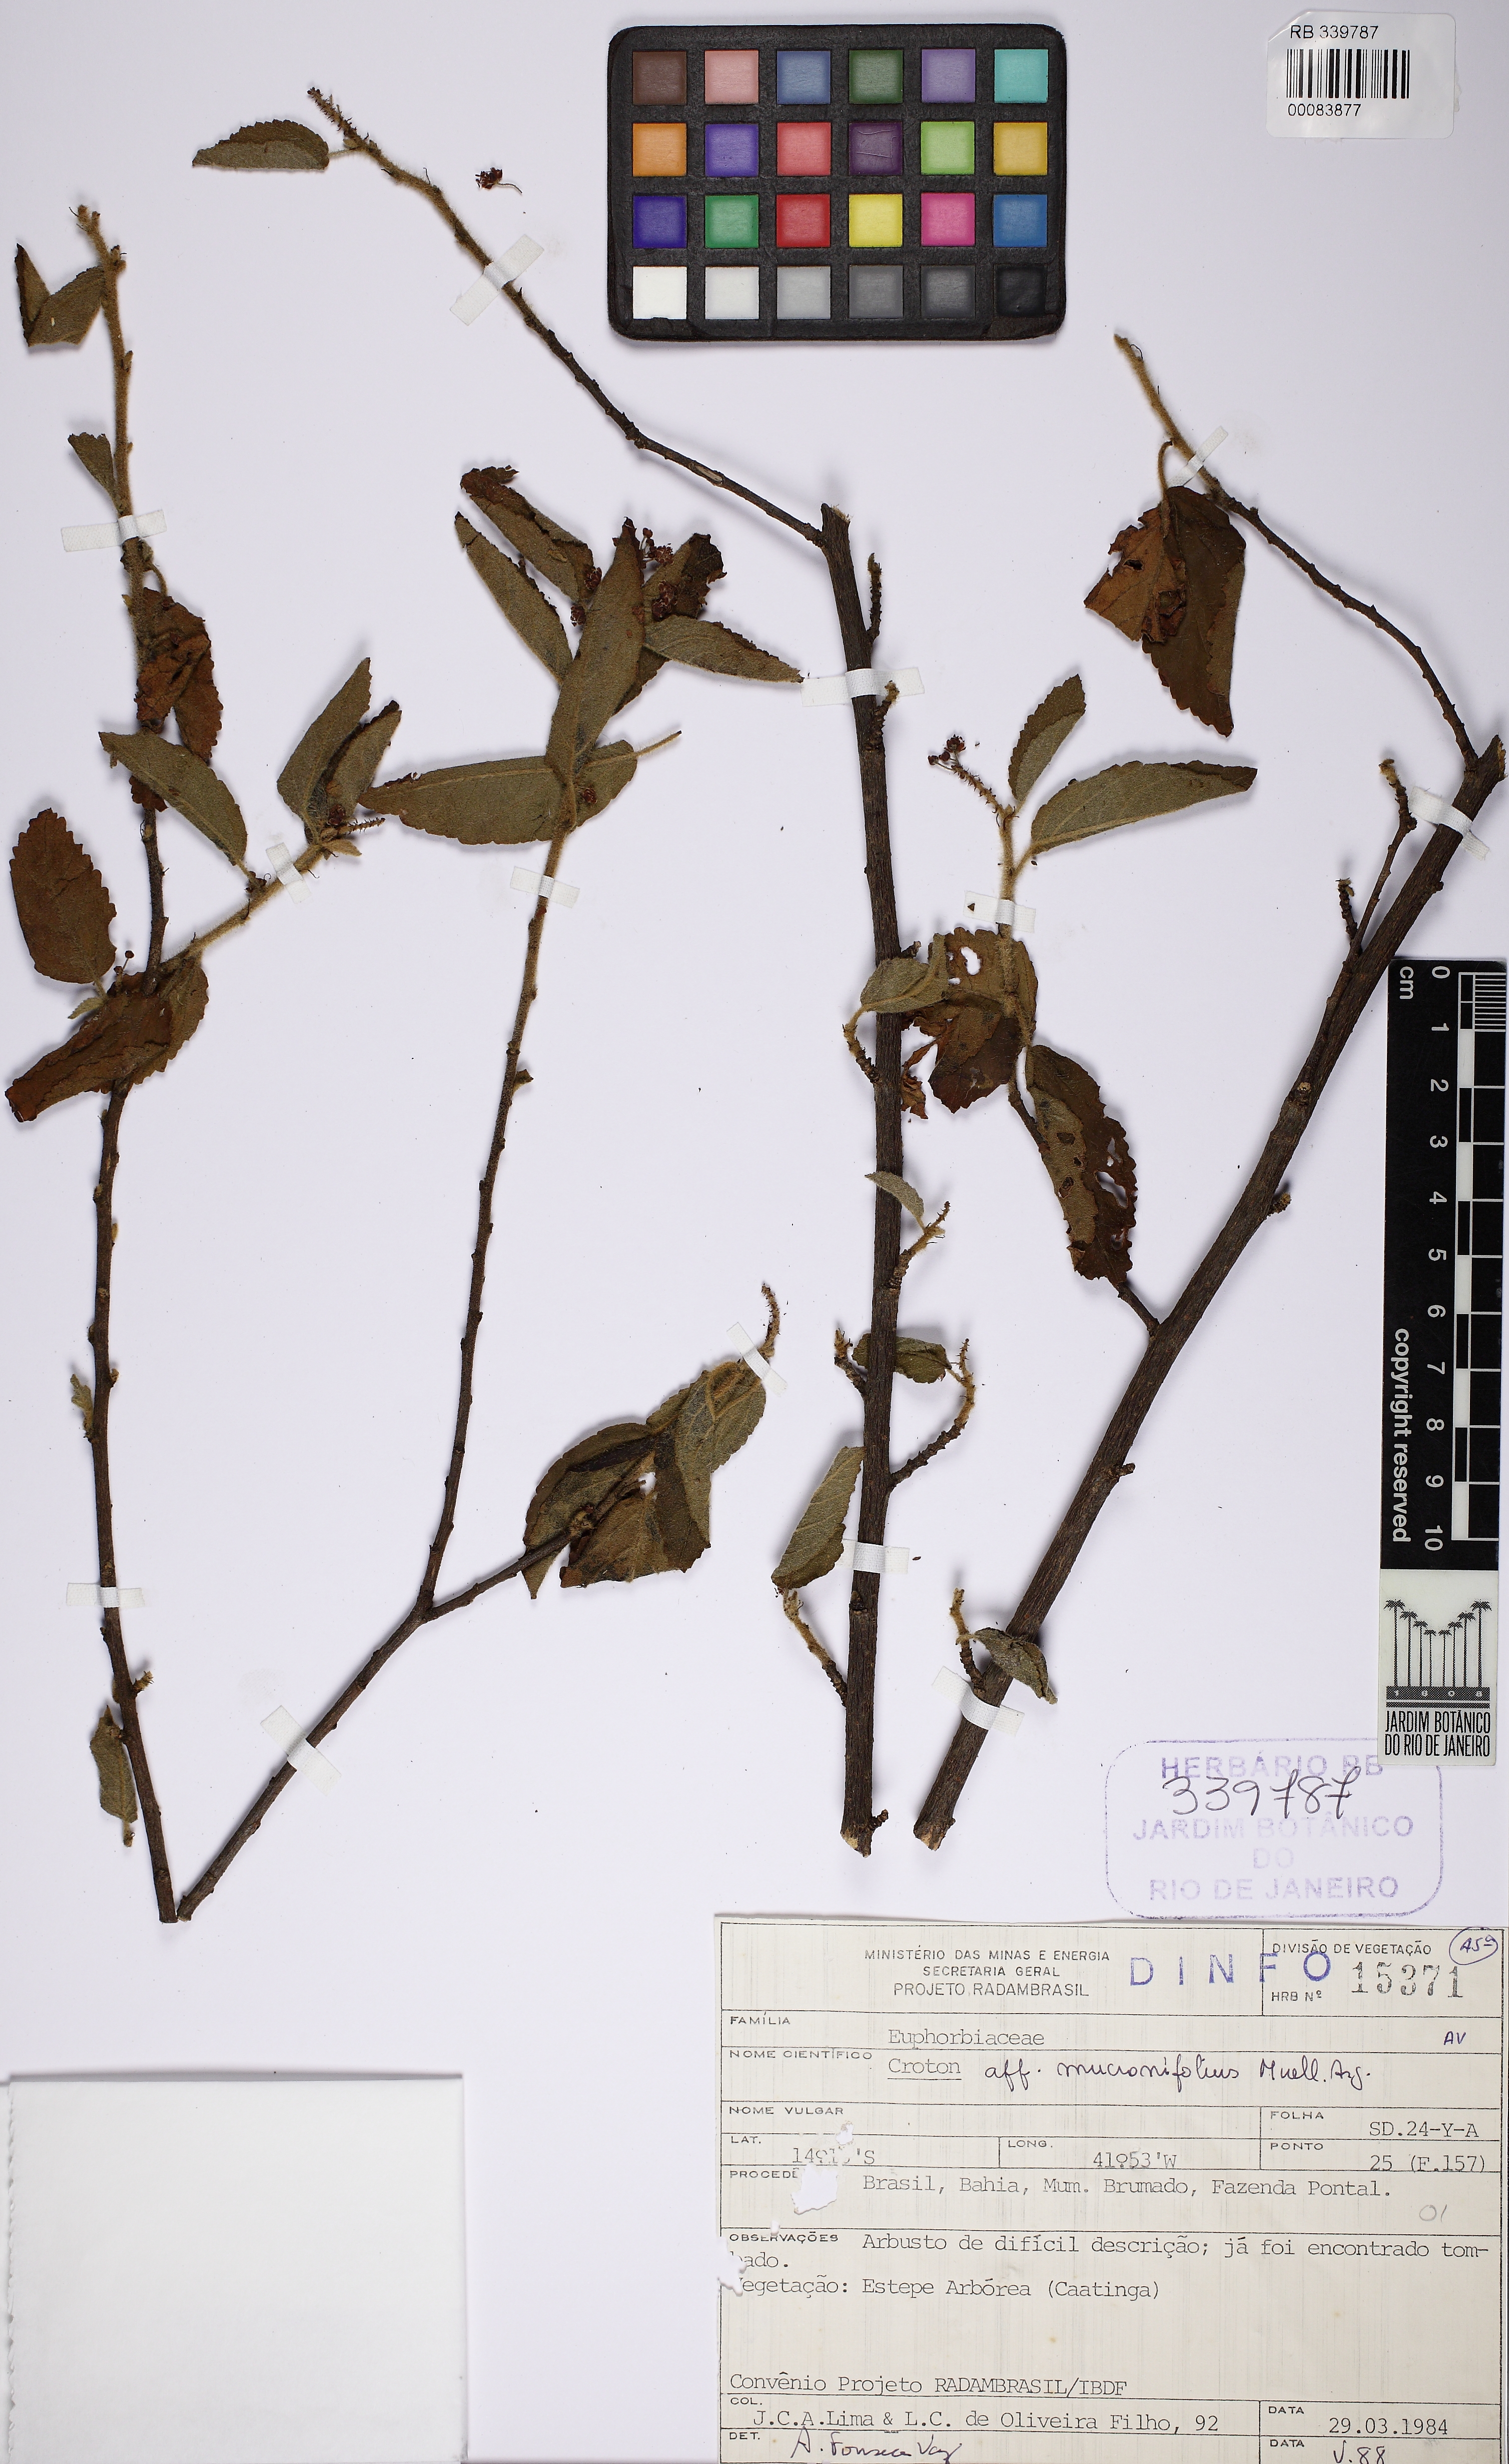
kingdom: Plantae
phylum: Tracheophyta
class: Magnoliopsida
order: Malpighiales
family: Euphorbiaceae
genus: Croton
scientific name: Croton mucronifolius
